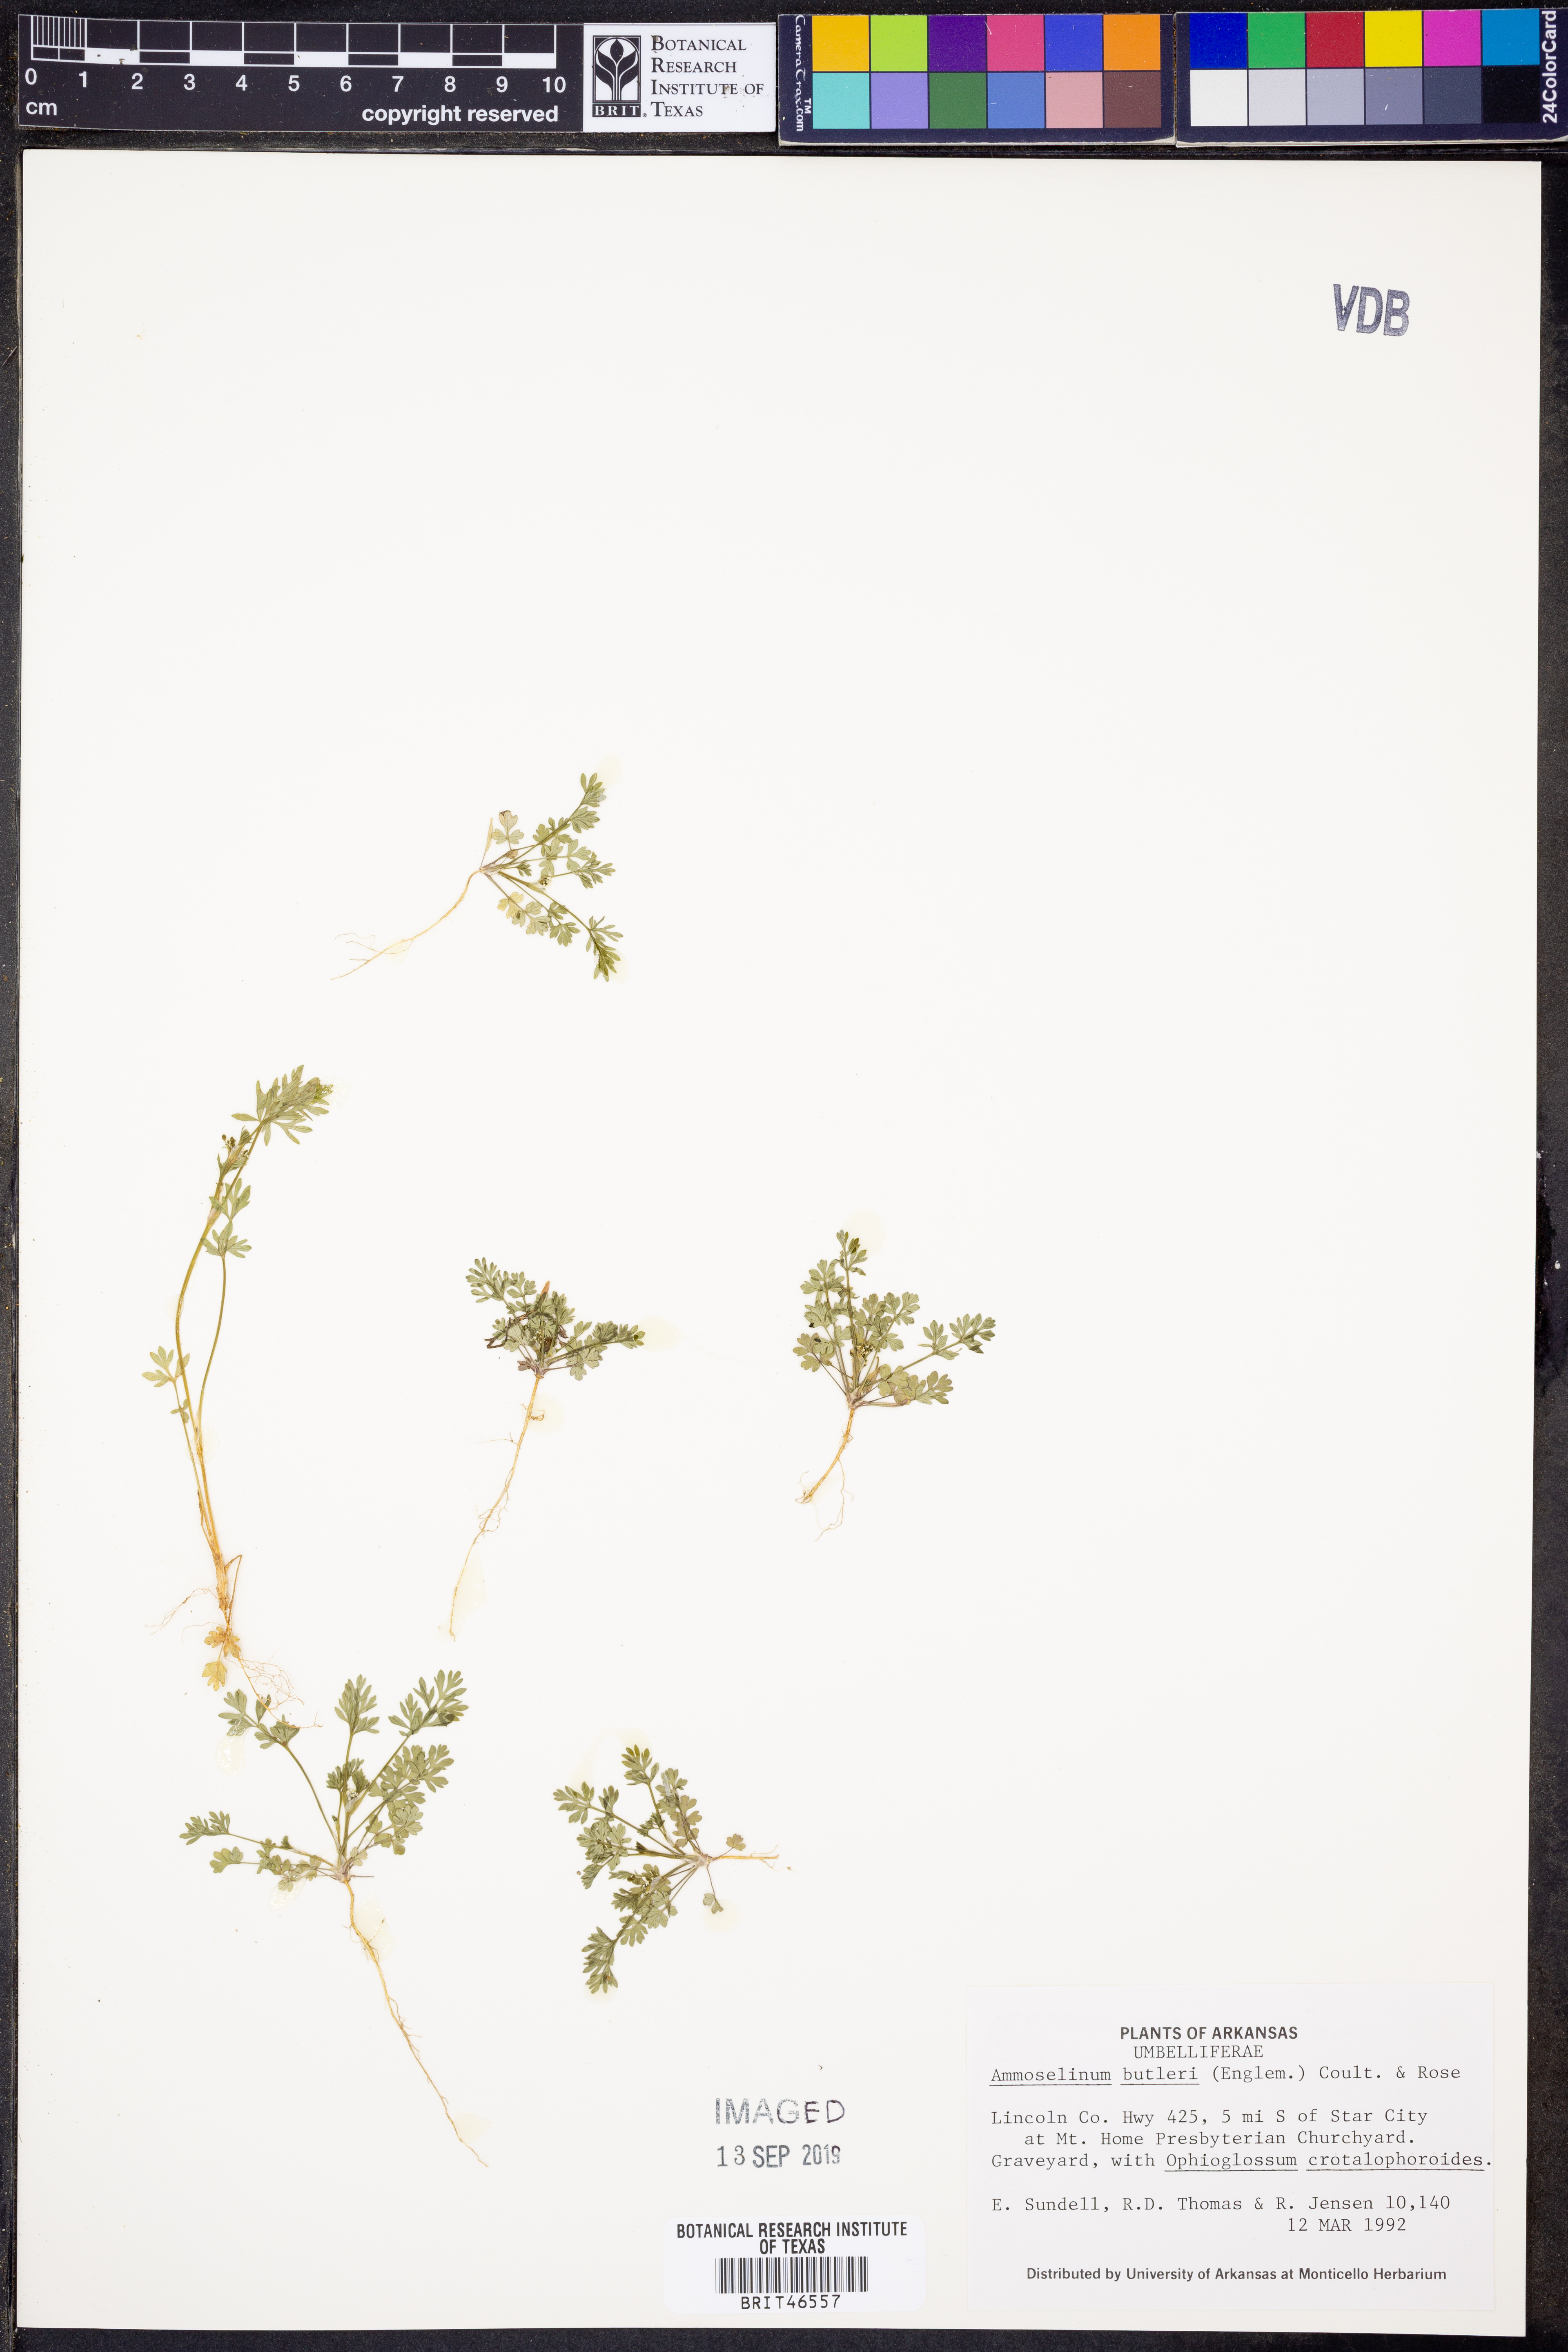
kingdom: Plantae
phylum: Tracheophyta
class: Magnoliopsida
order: Apiales
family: Apiaceae
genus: Ammoselinum
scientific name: Ammoselinum butleri
